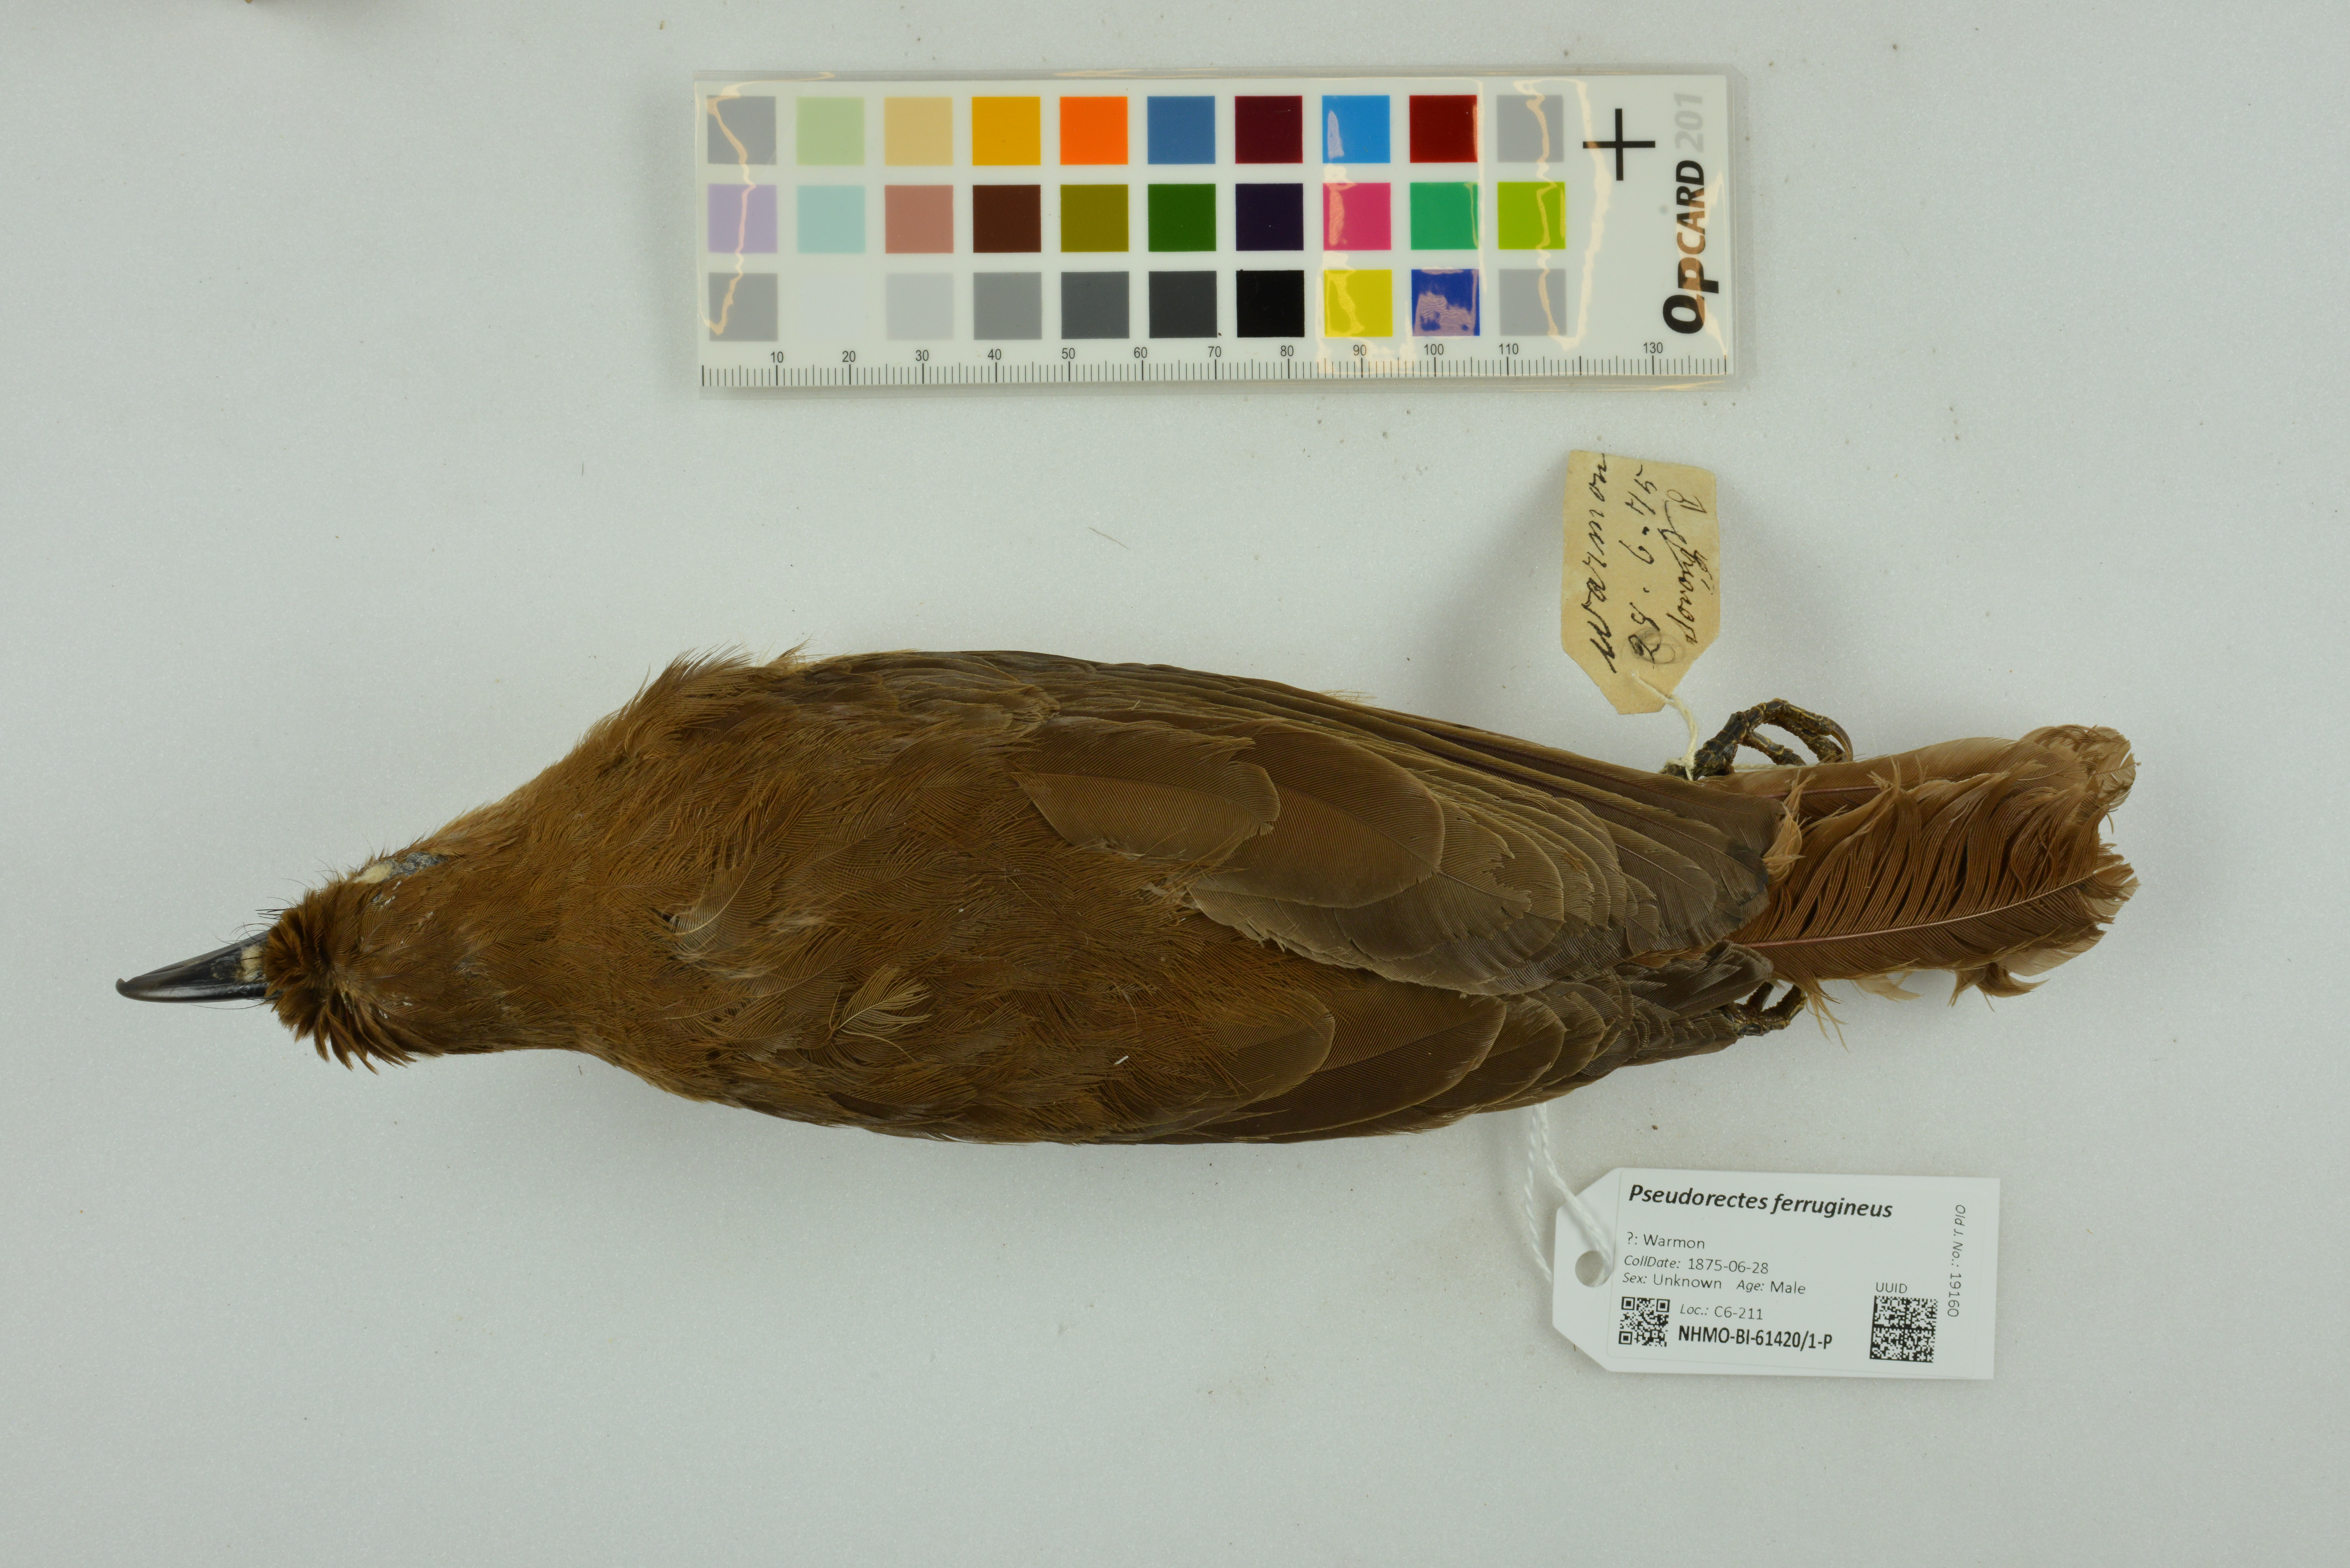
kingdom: Animalia
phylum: Chordata
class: Aves
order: Passeriformes
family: Pachycephalidae
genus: Pseudorectes
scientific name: Pseudorectes ferrugineus
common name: Rusty pitohui
